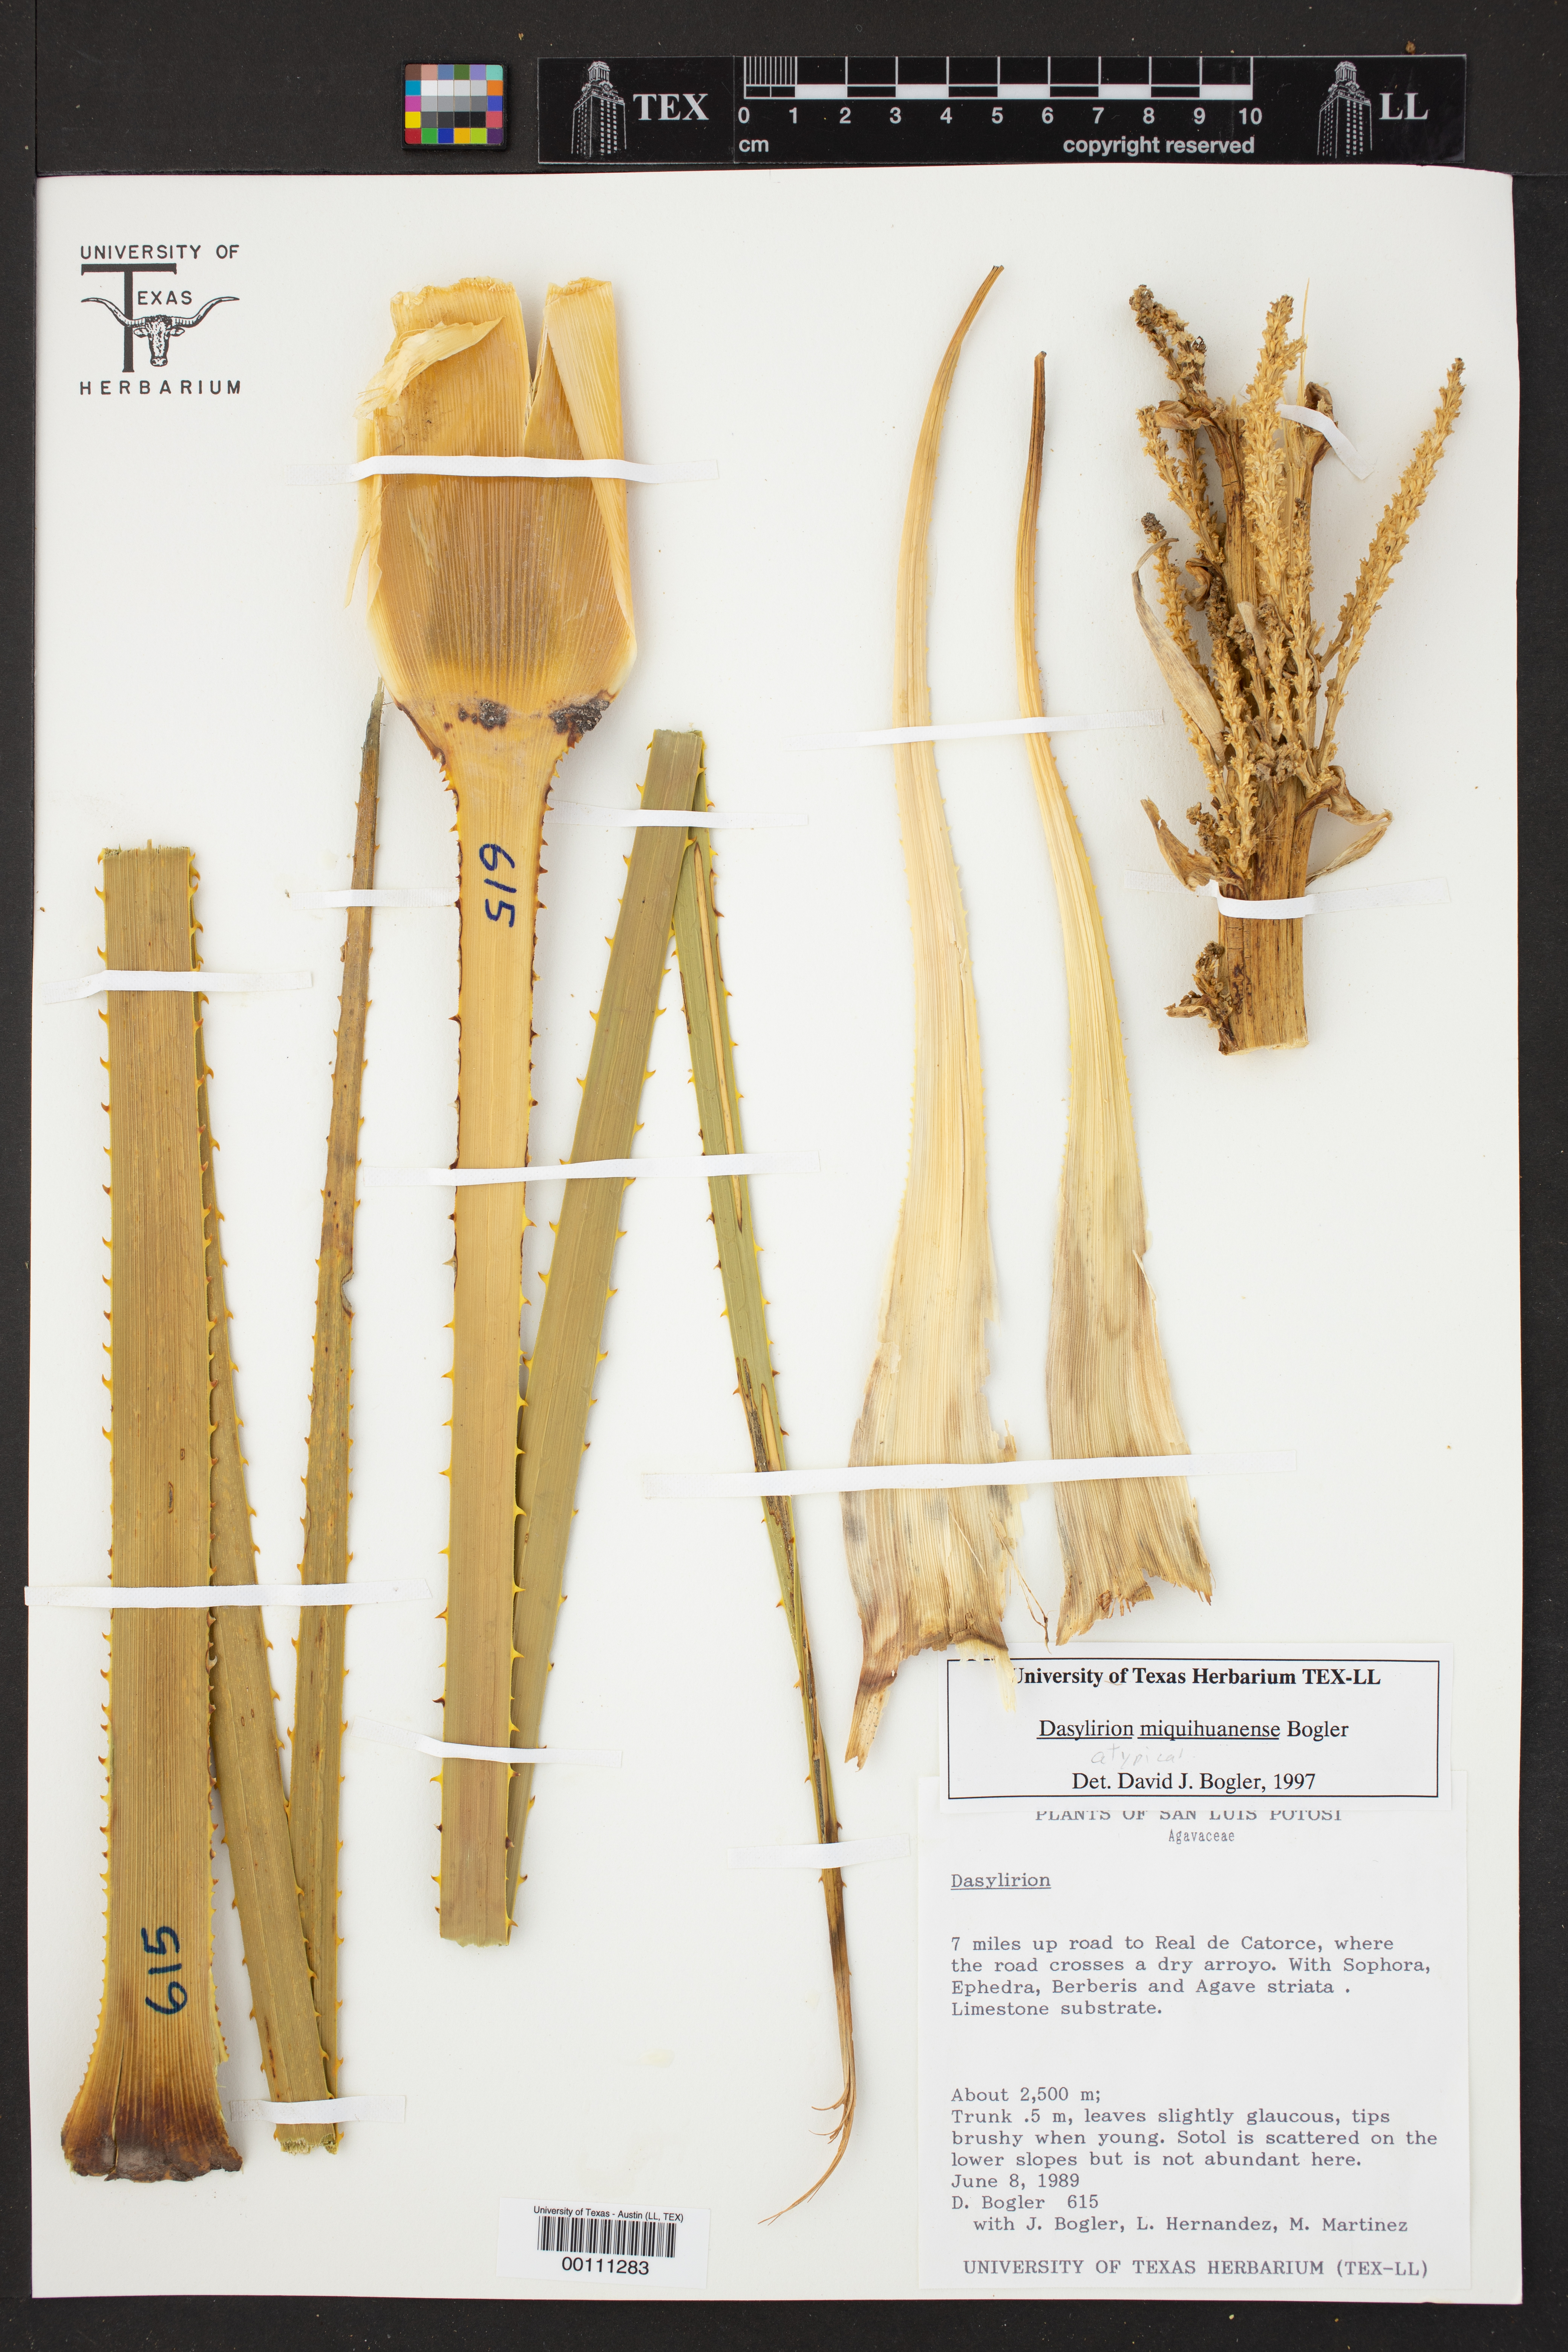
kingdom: Plantae
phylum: Tracheophyta
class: Liliopsida
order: Asparagales
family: Asparagaceae
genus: Dasylirion
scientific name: Dasylirion miquihuanense
